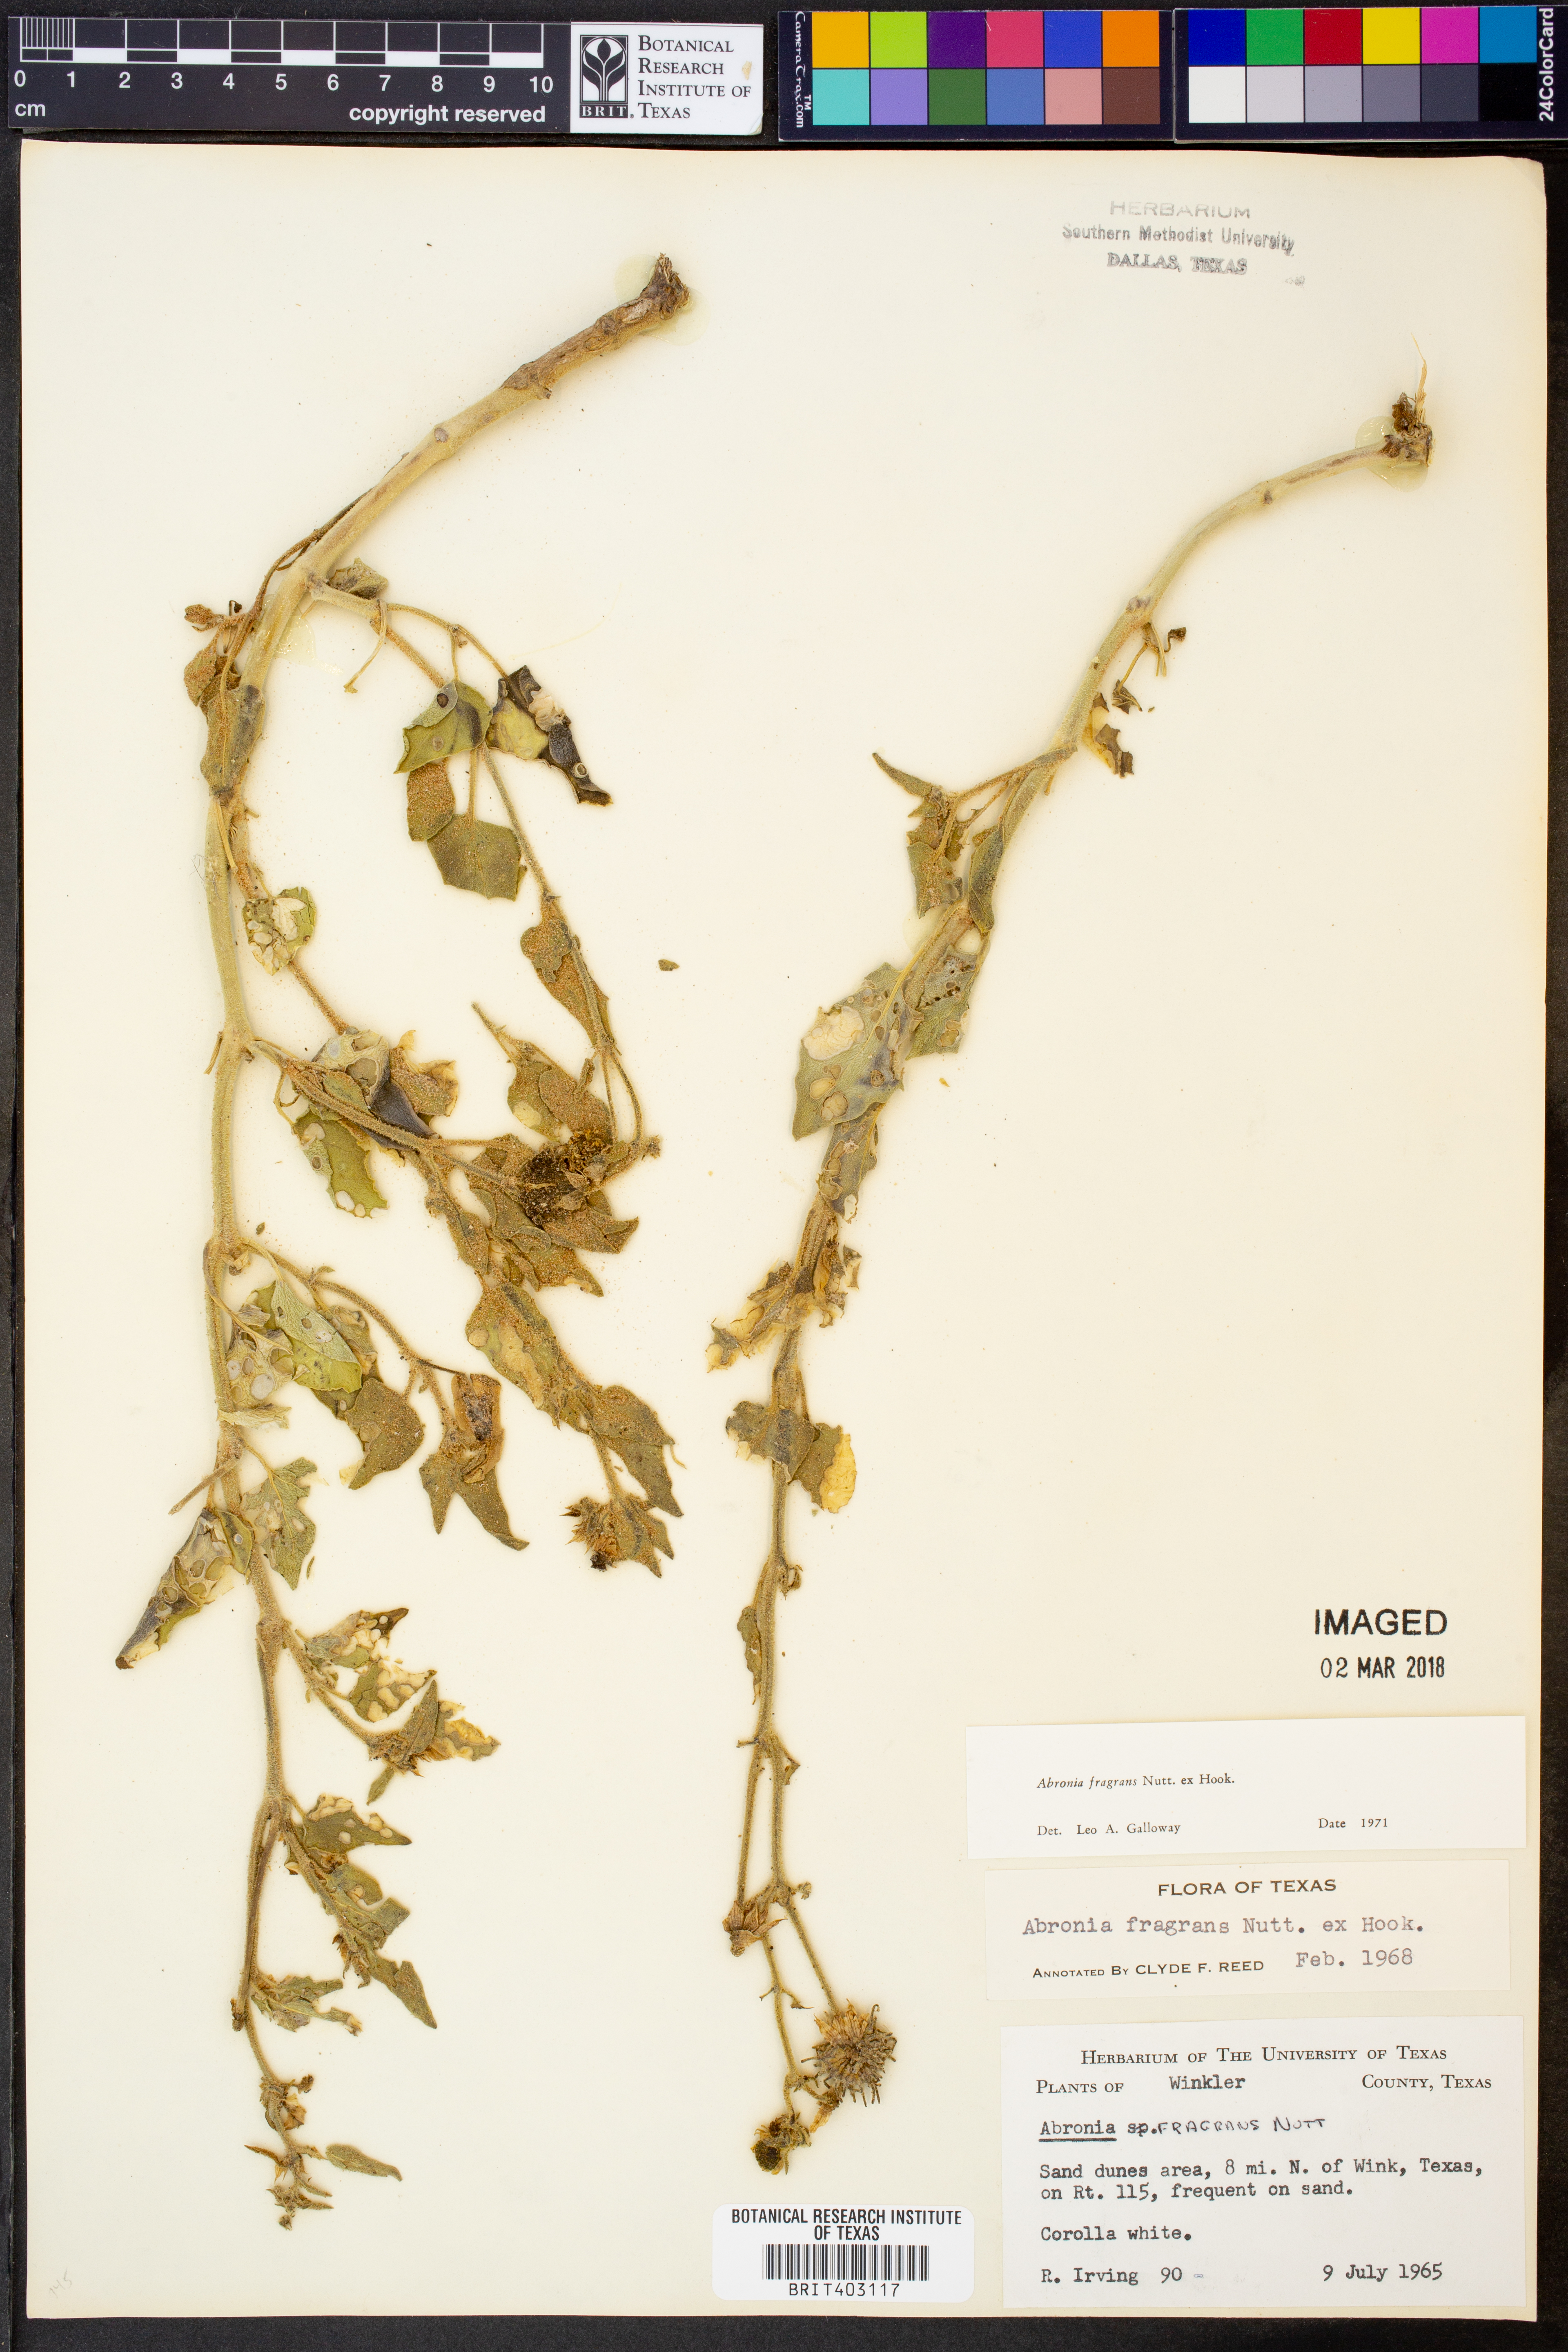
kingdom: Plantae
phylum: Tracheophyta
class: Magnoliopsida
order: Caryophyllales
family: Nyctaginaceae
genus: Abronia
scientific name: Abronia fragrans
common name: Fragrant sand-verbena
